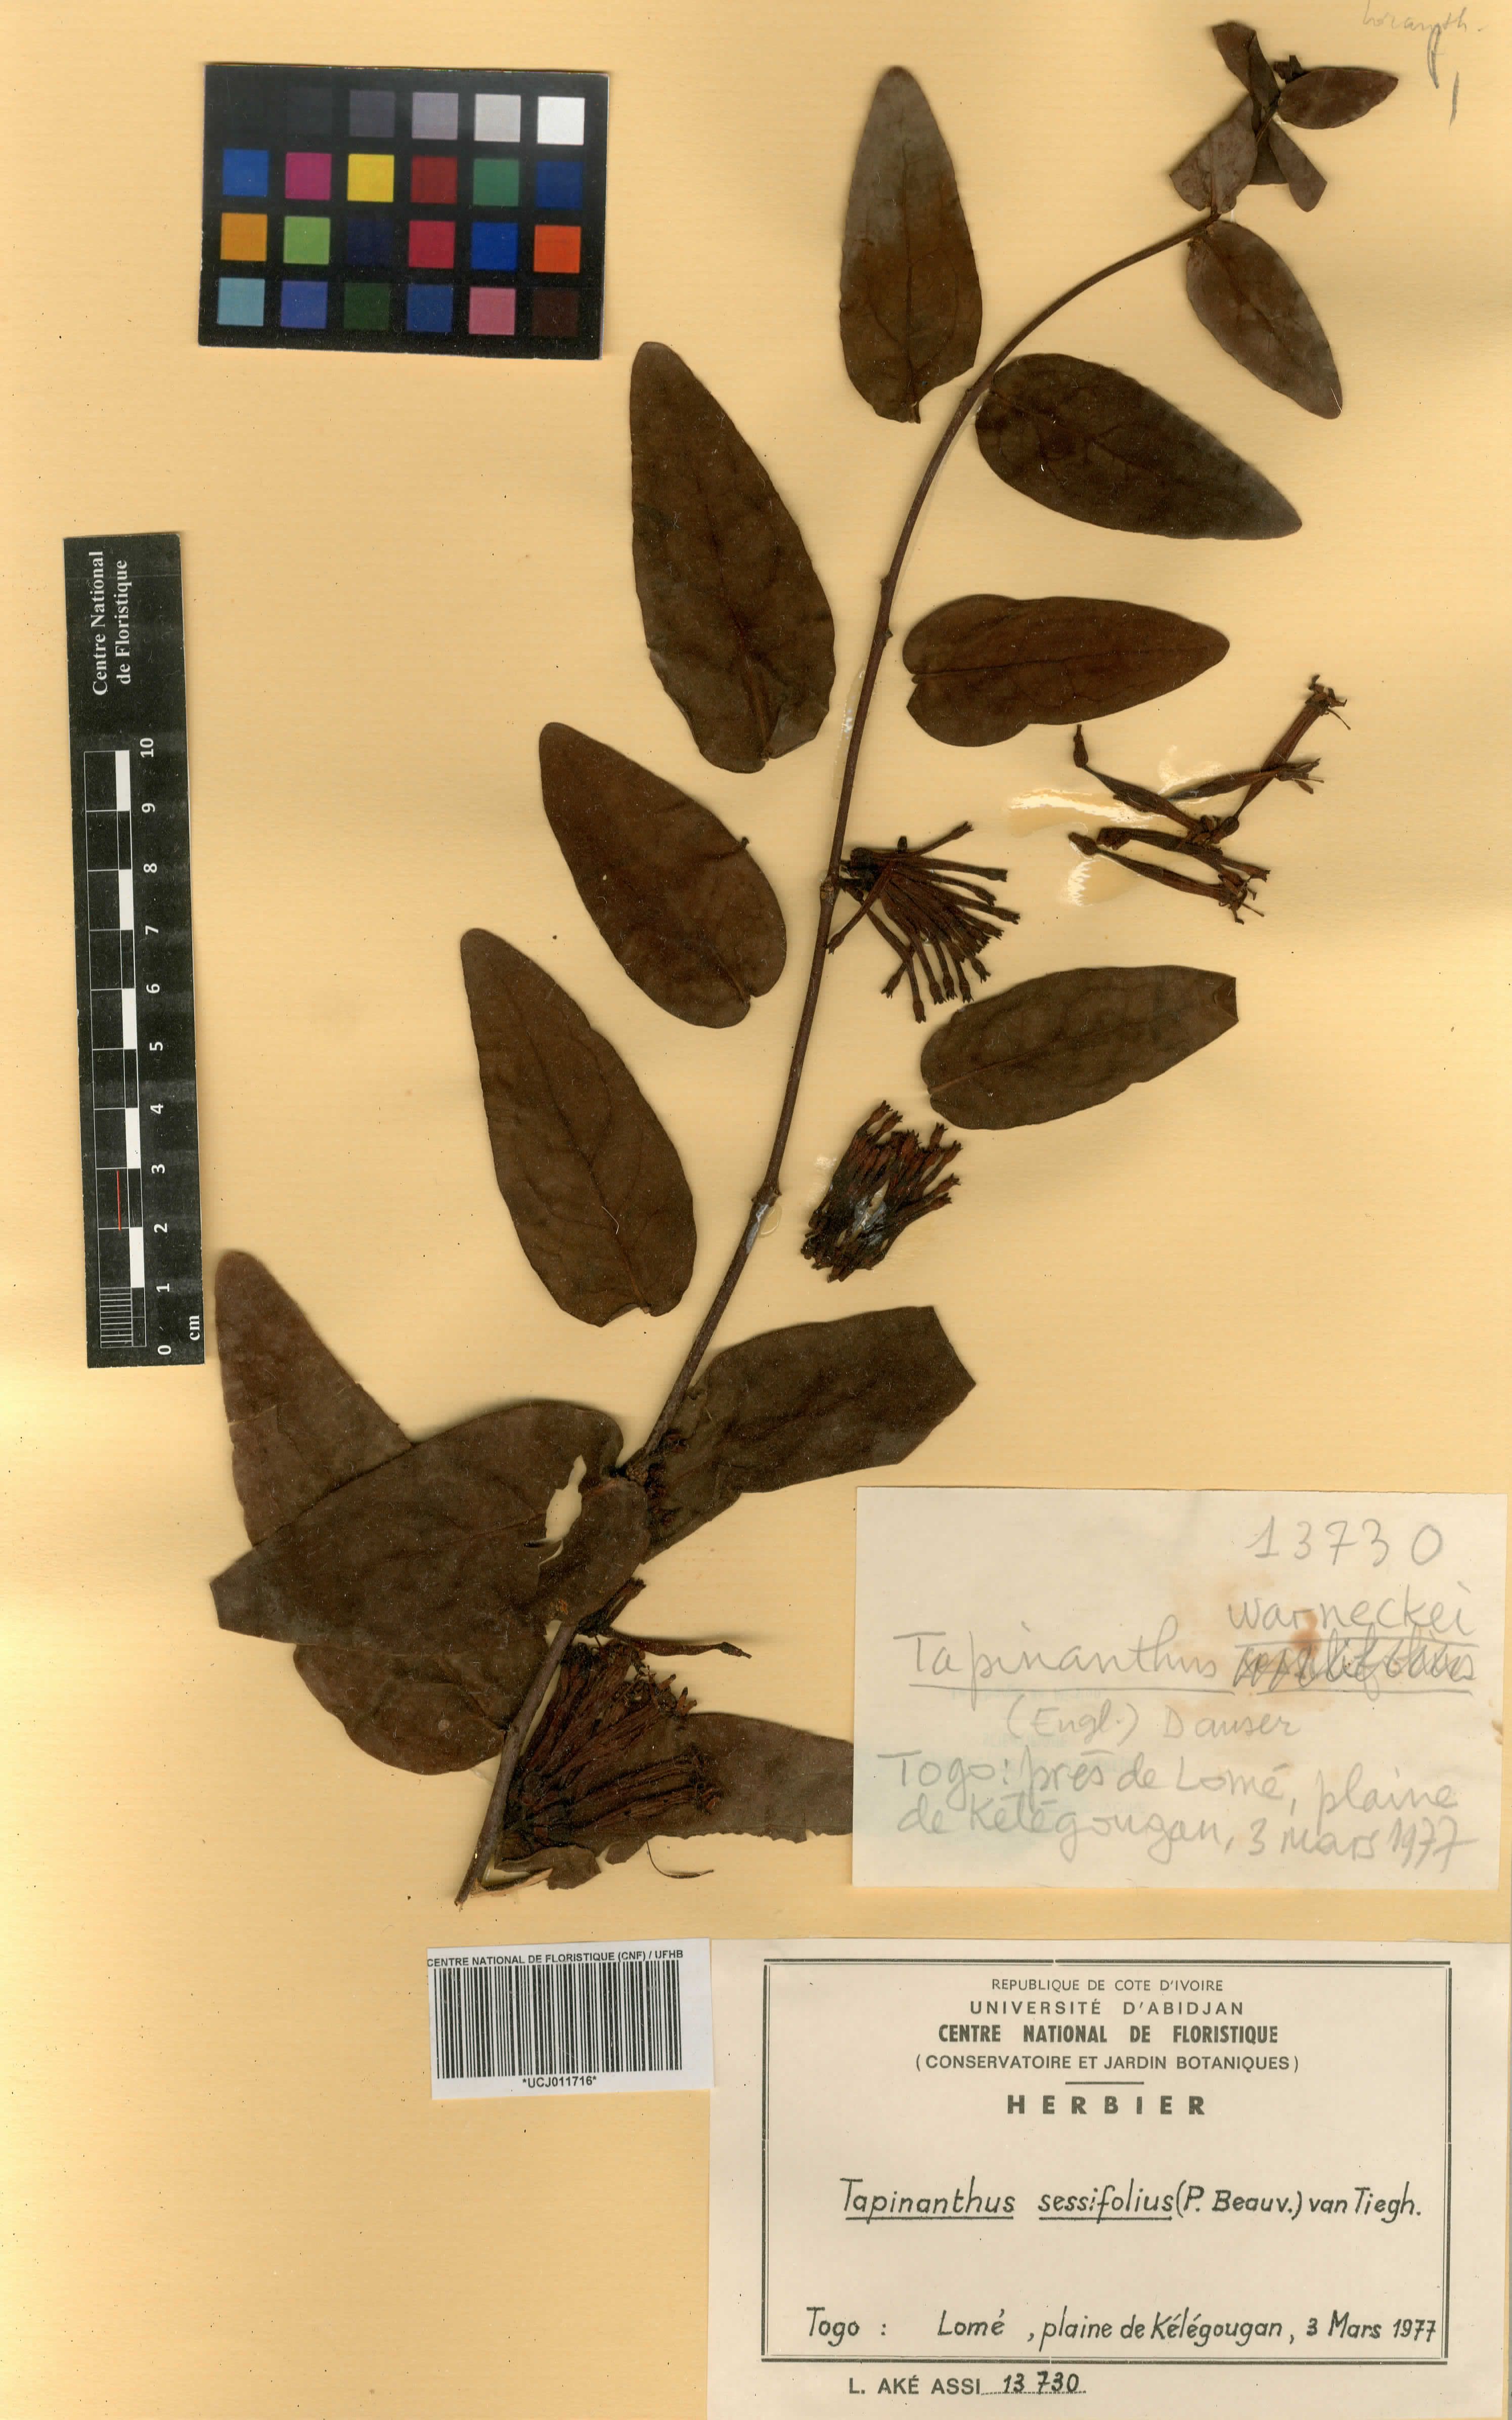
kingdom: Plantae
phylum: Tracheophyta
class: Magnoliopsida
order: Santalales
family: Loranthaceae
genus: Tapinanthus
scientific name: Tapinanthus sessilifolius
